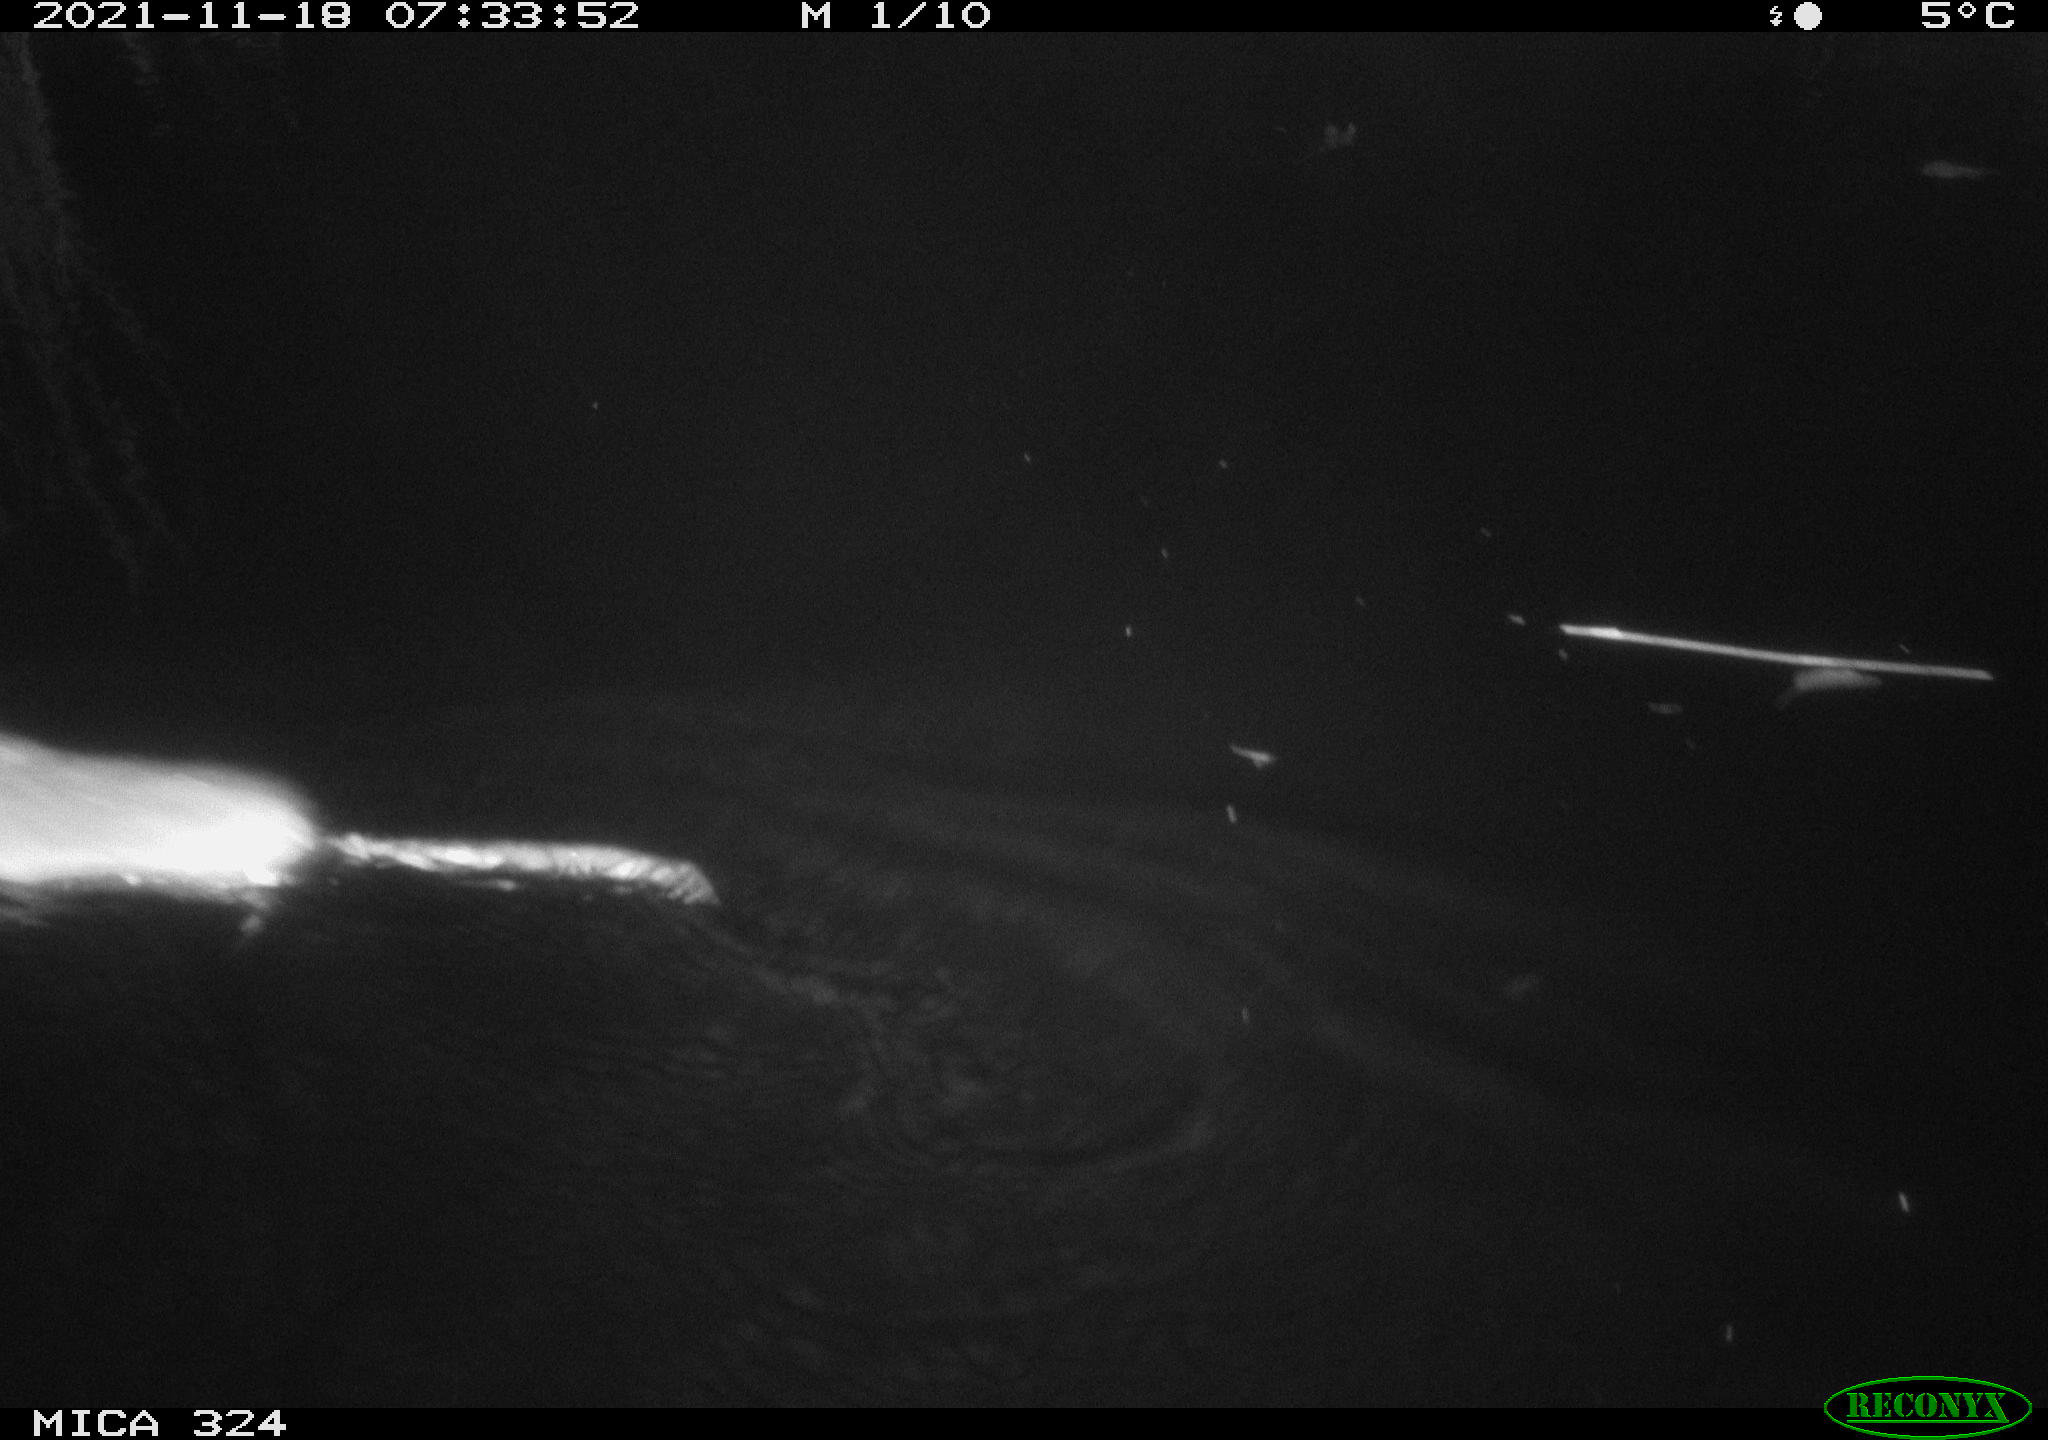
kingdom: Animalia
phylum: Chordata
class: Mammalia
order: Rodentia
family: Cricetidae
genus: Ondatra
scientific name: Ondatra zibethicus
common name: Muskrat
